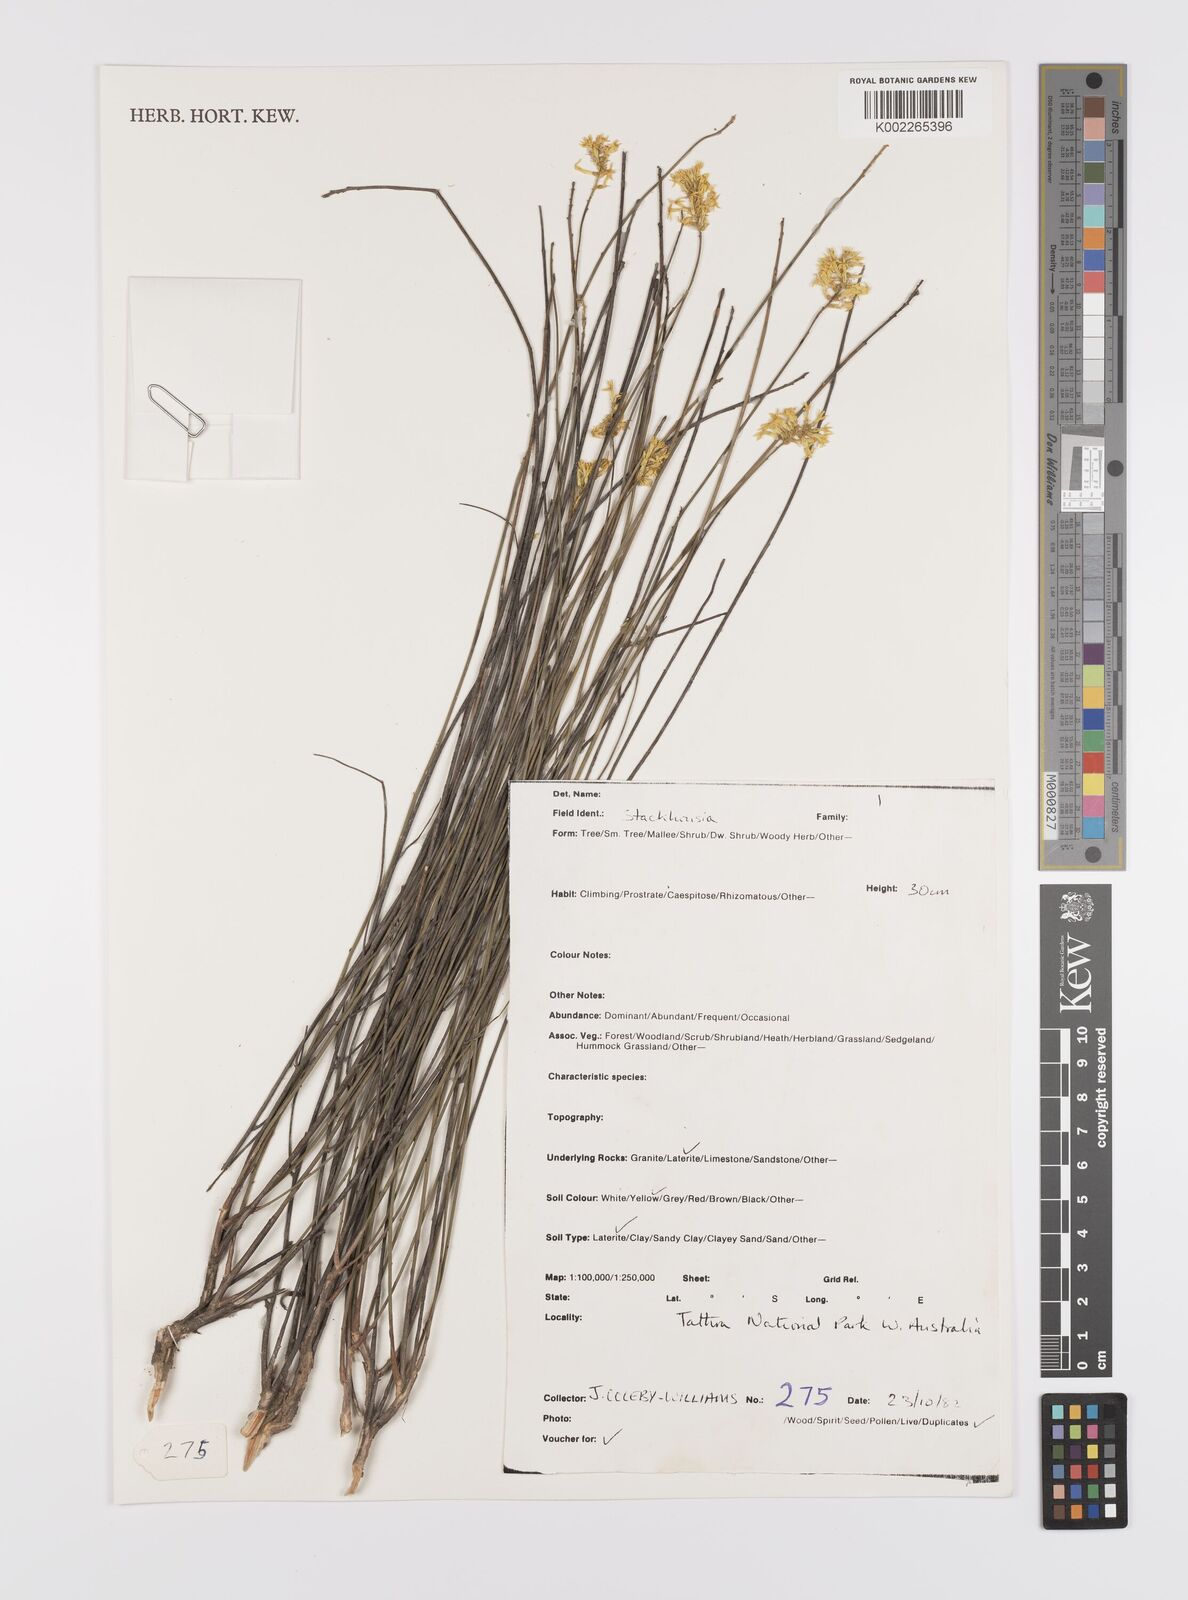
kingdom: Plantae
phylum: Tracheophyta
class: Magnoliopsida
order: Celastrales
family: Celastraceae
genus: Stackhousia
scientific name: Stackhousia
